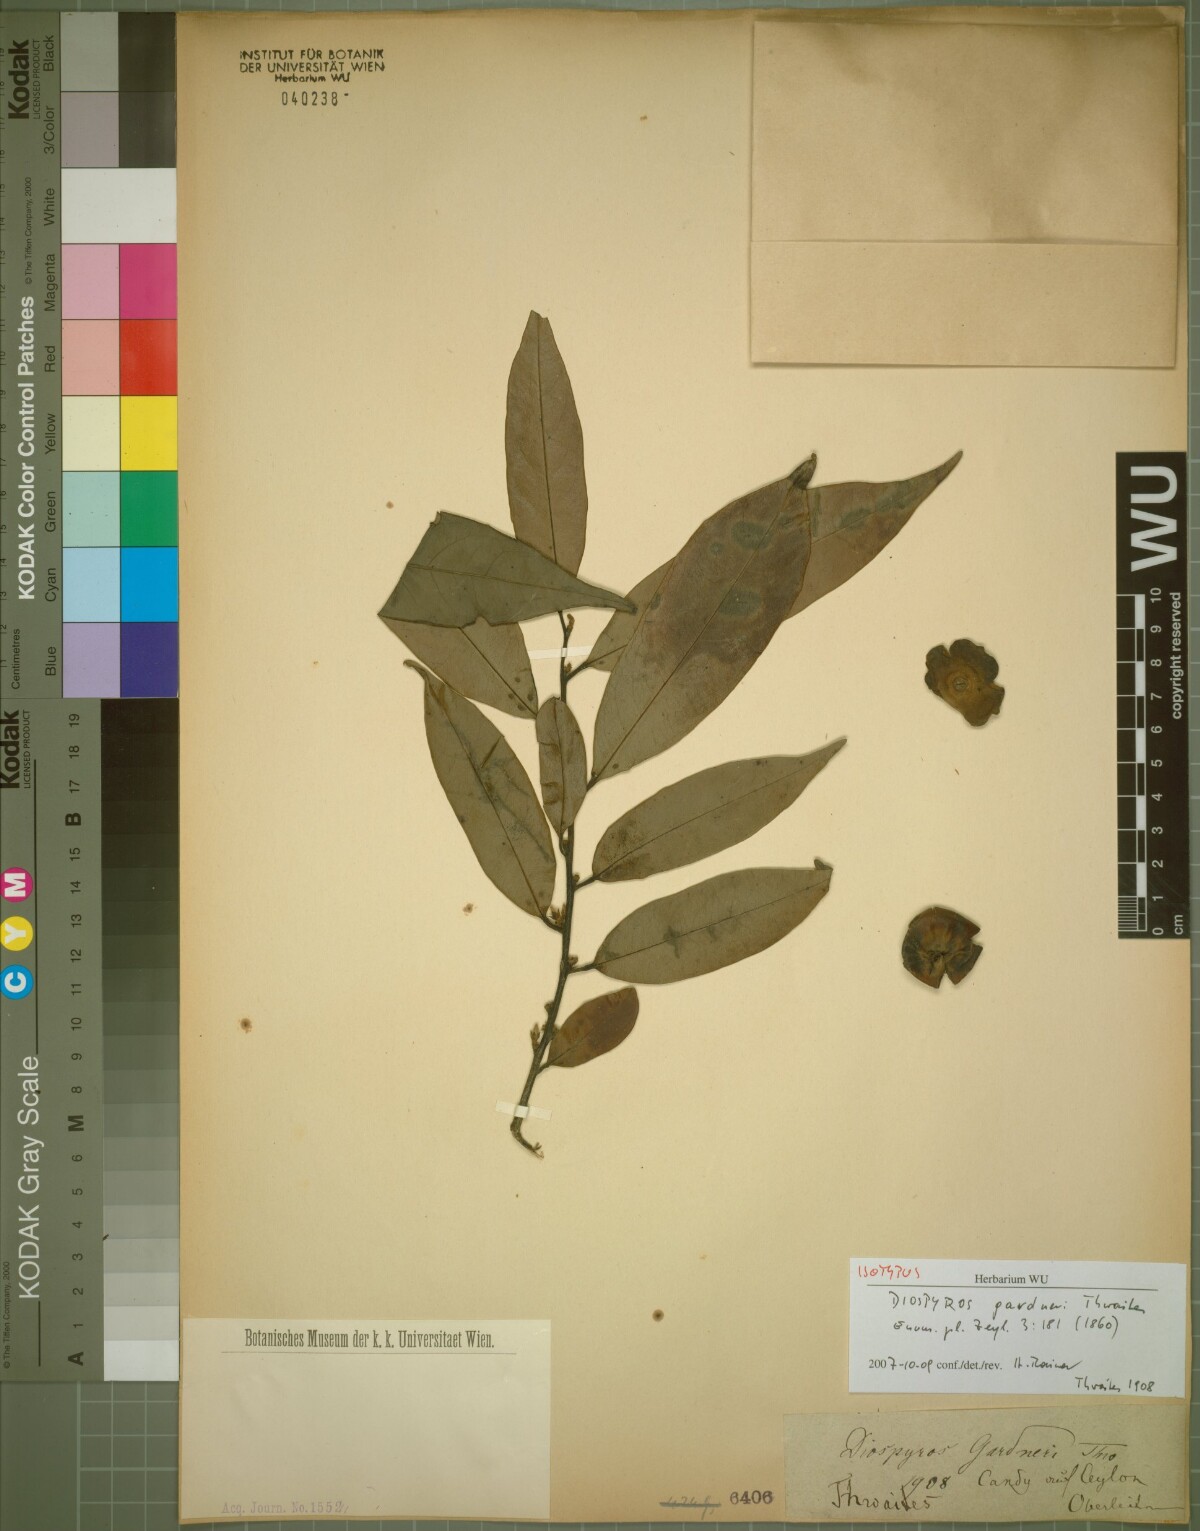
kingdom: Plantae
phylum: Tracheophyta
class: Magnoliopsida
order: Ericales
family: Ebenaceae
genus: Diospyros
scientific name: Diospyros walkeri
